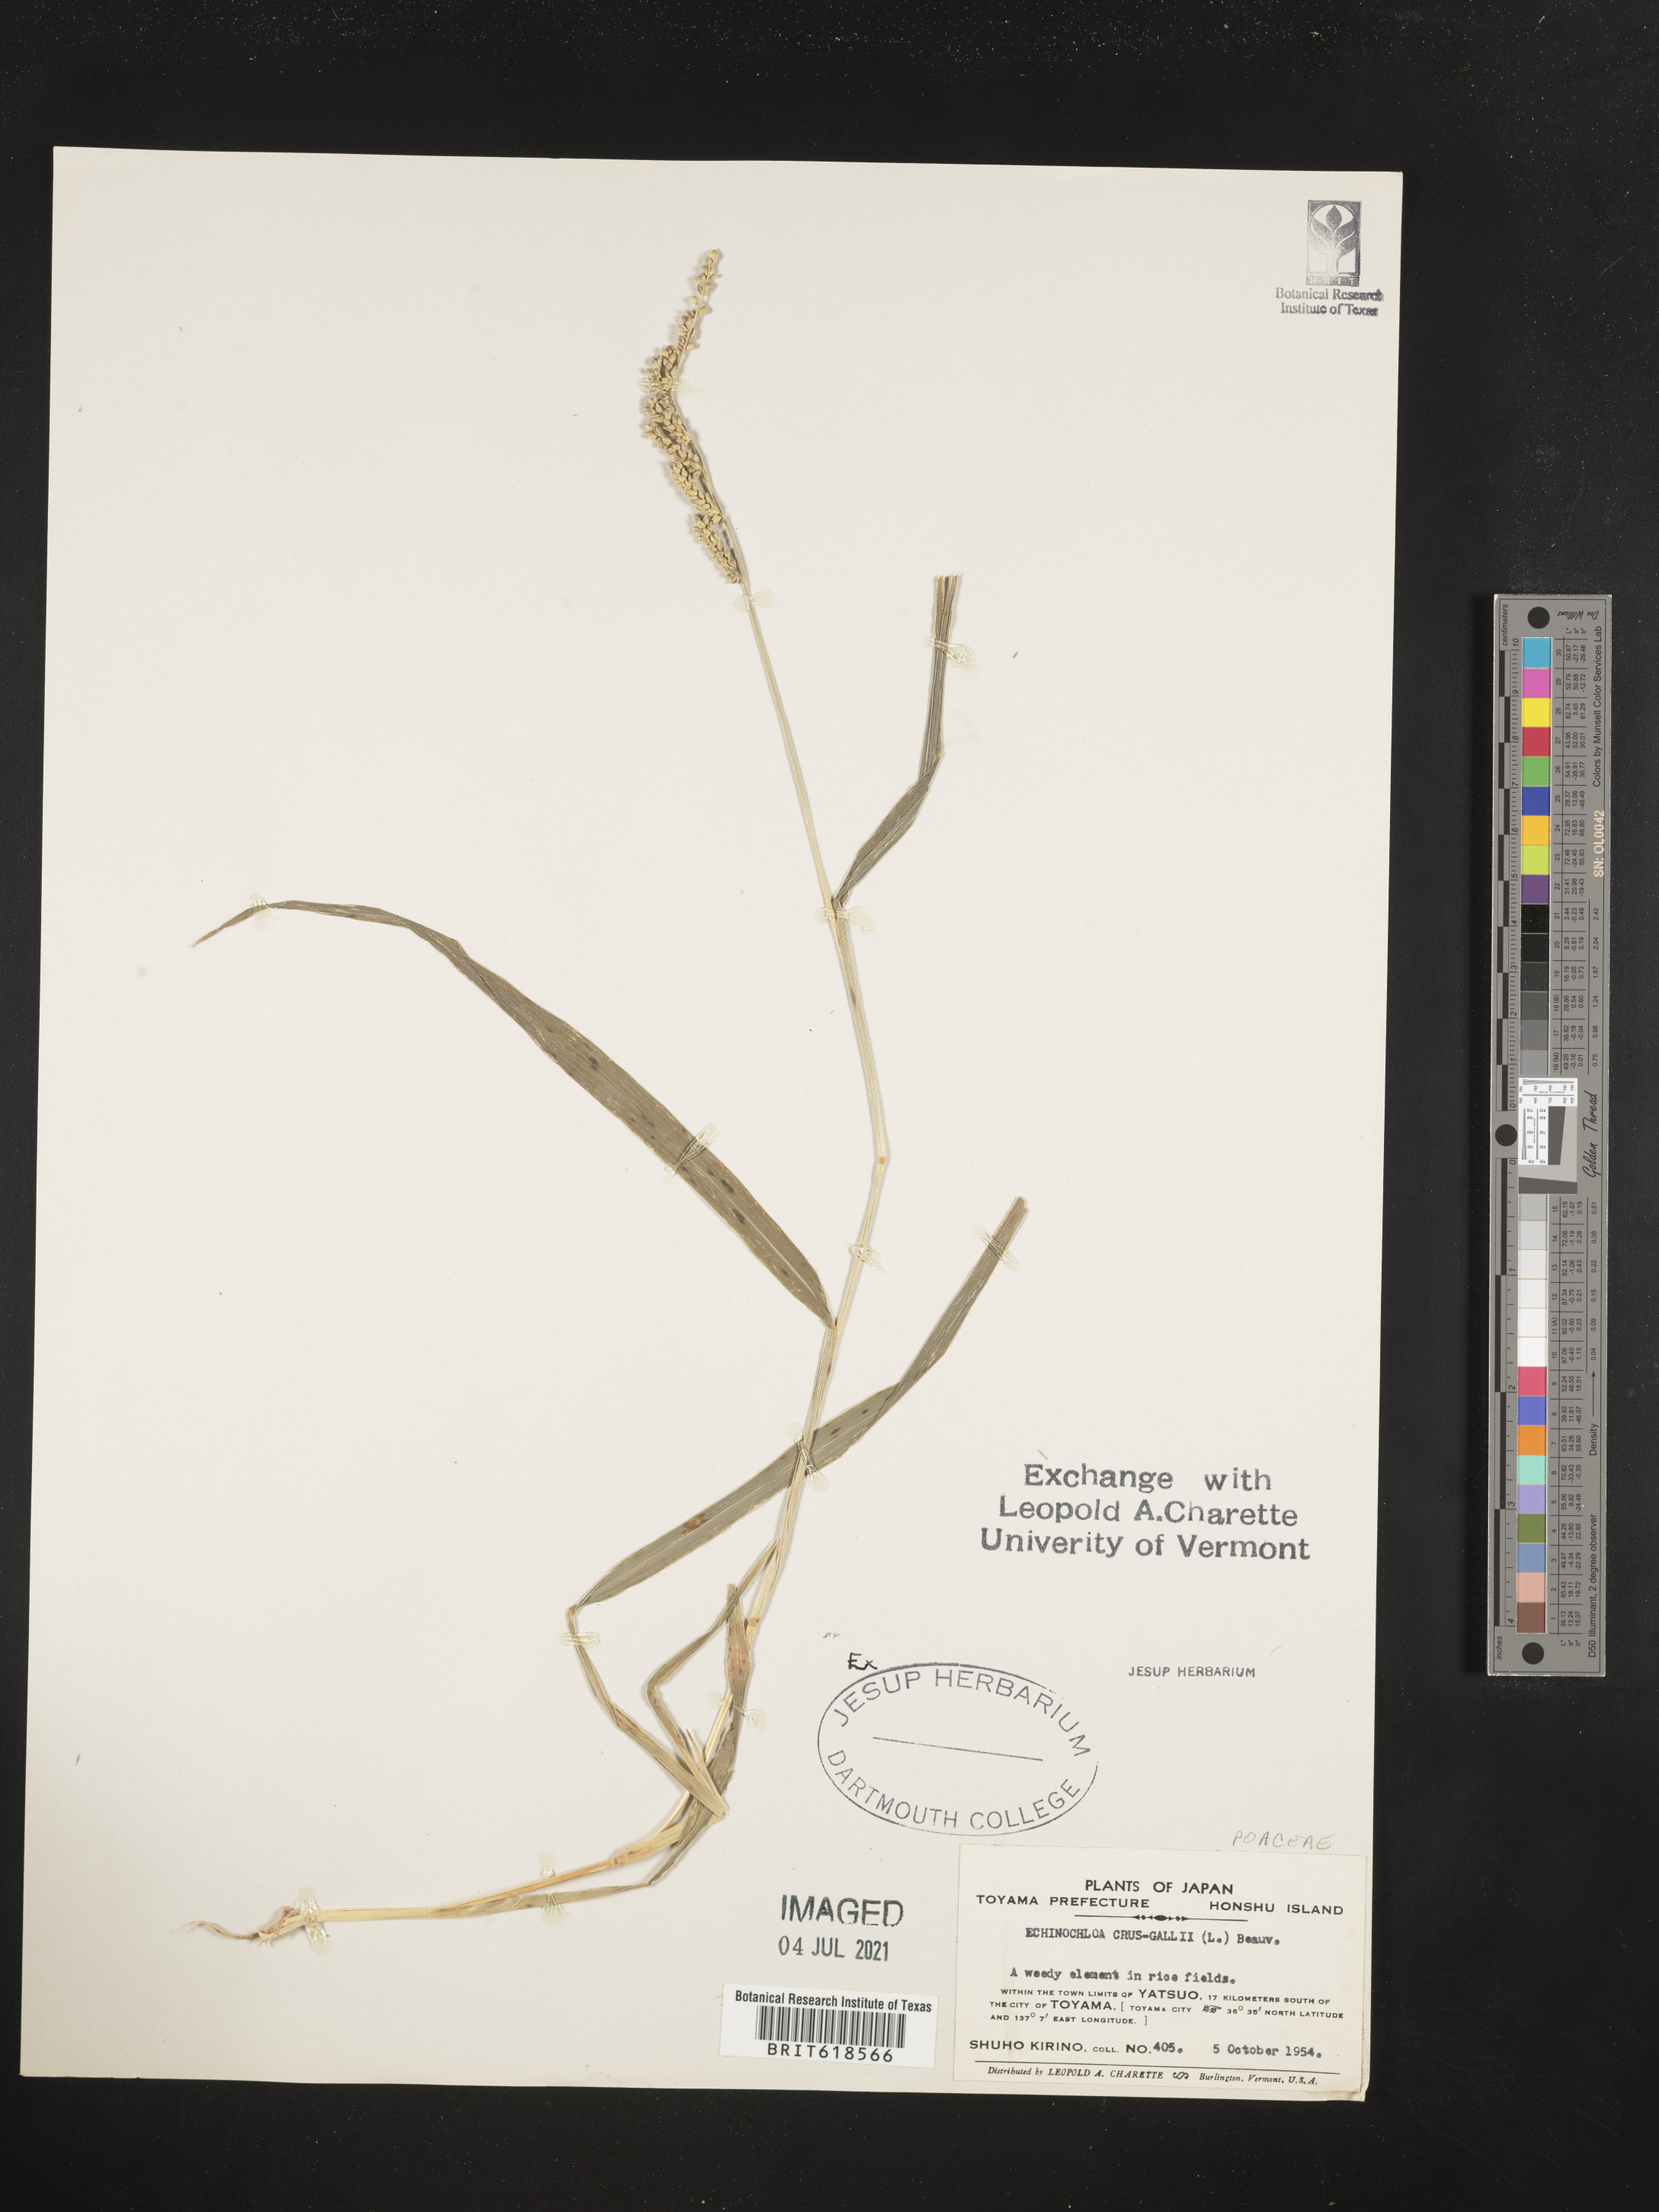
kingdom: Plantae
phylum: Tracheophyta
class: Liliopsida
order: Poales
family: Poaceae
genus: Echinochloa
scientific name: Echinochloa crus-galli
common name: Cockspur
